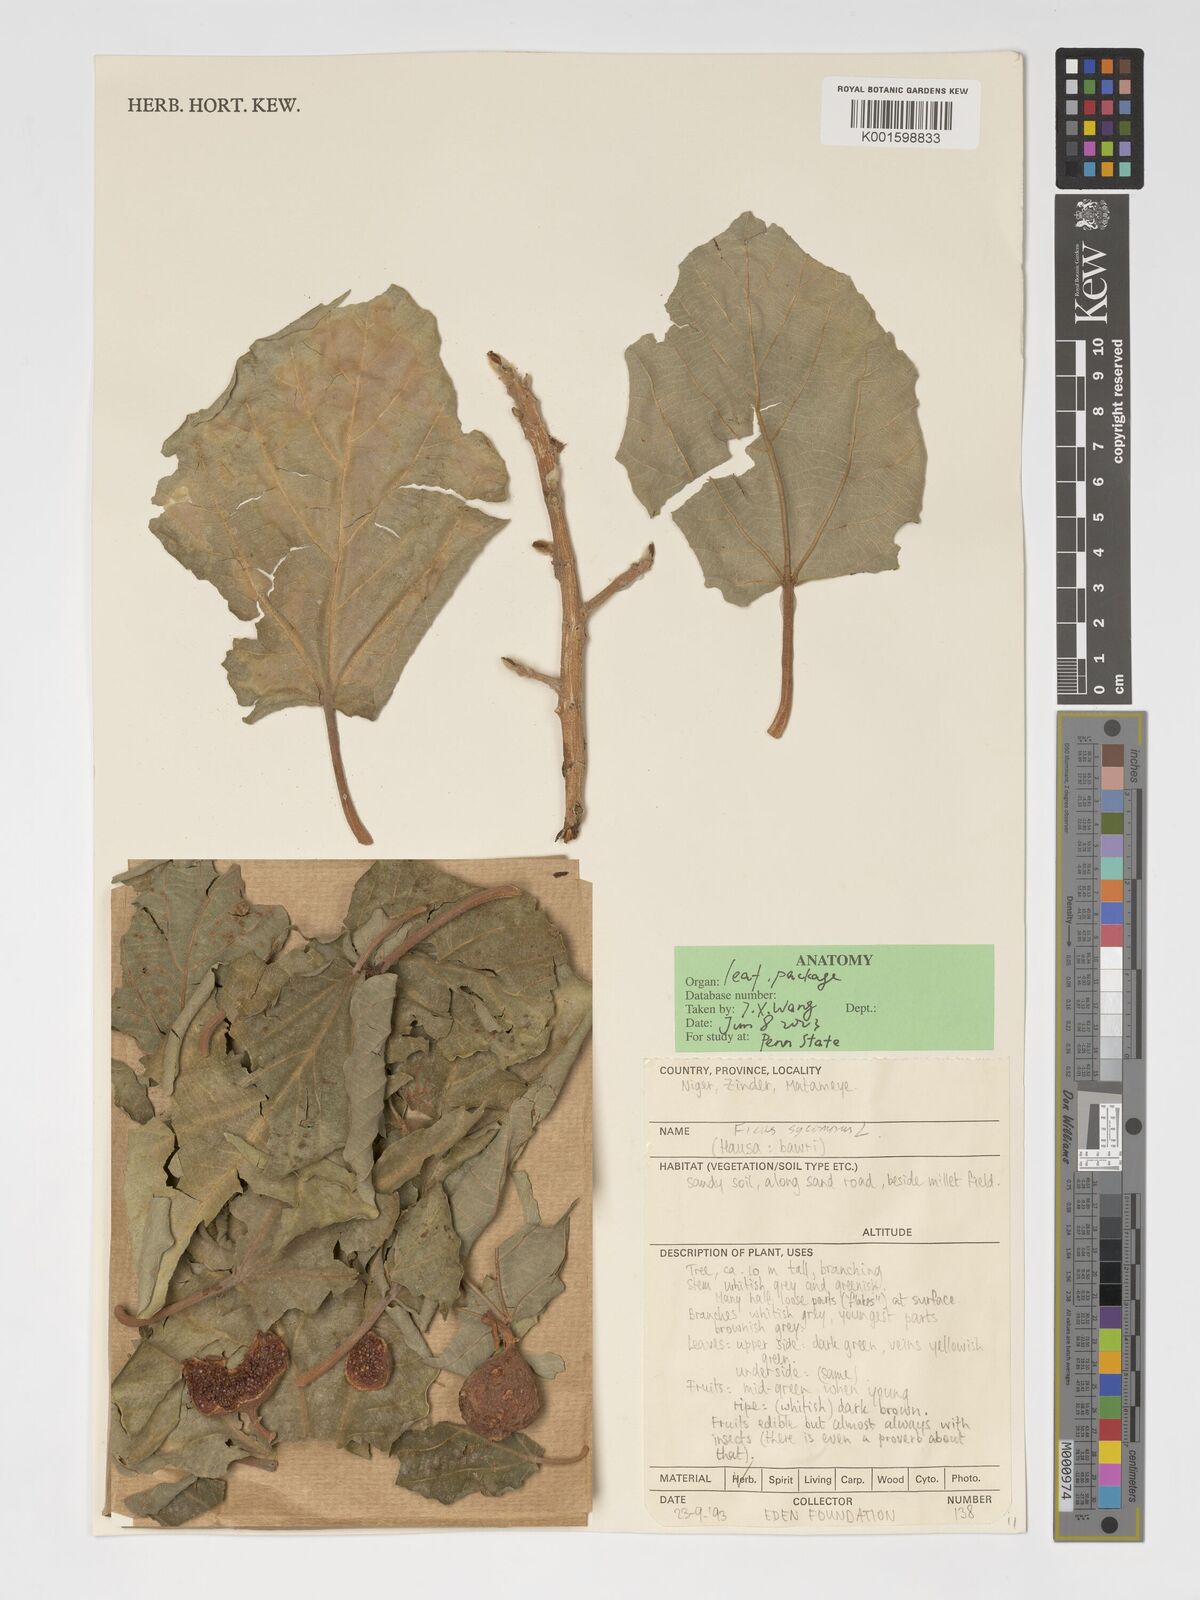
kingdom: Plantae
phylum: Tracheophyta
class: Magnoliopsida
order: Rosales
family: Moraceae
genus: Ficus
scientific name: Ficus sycomorus
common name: Sycomore
